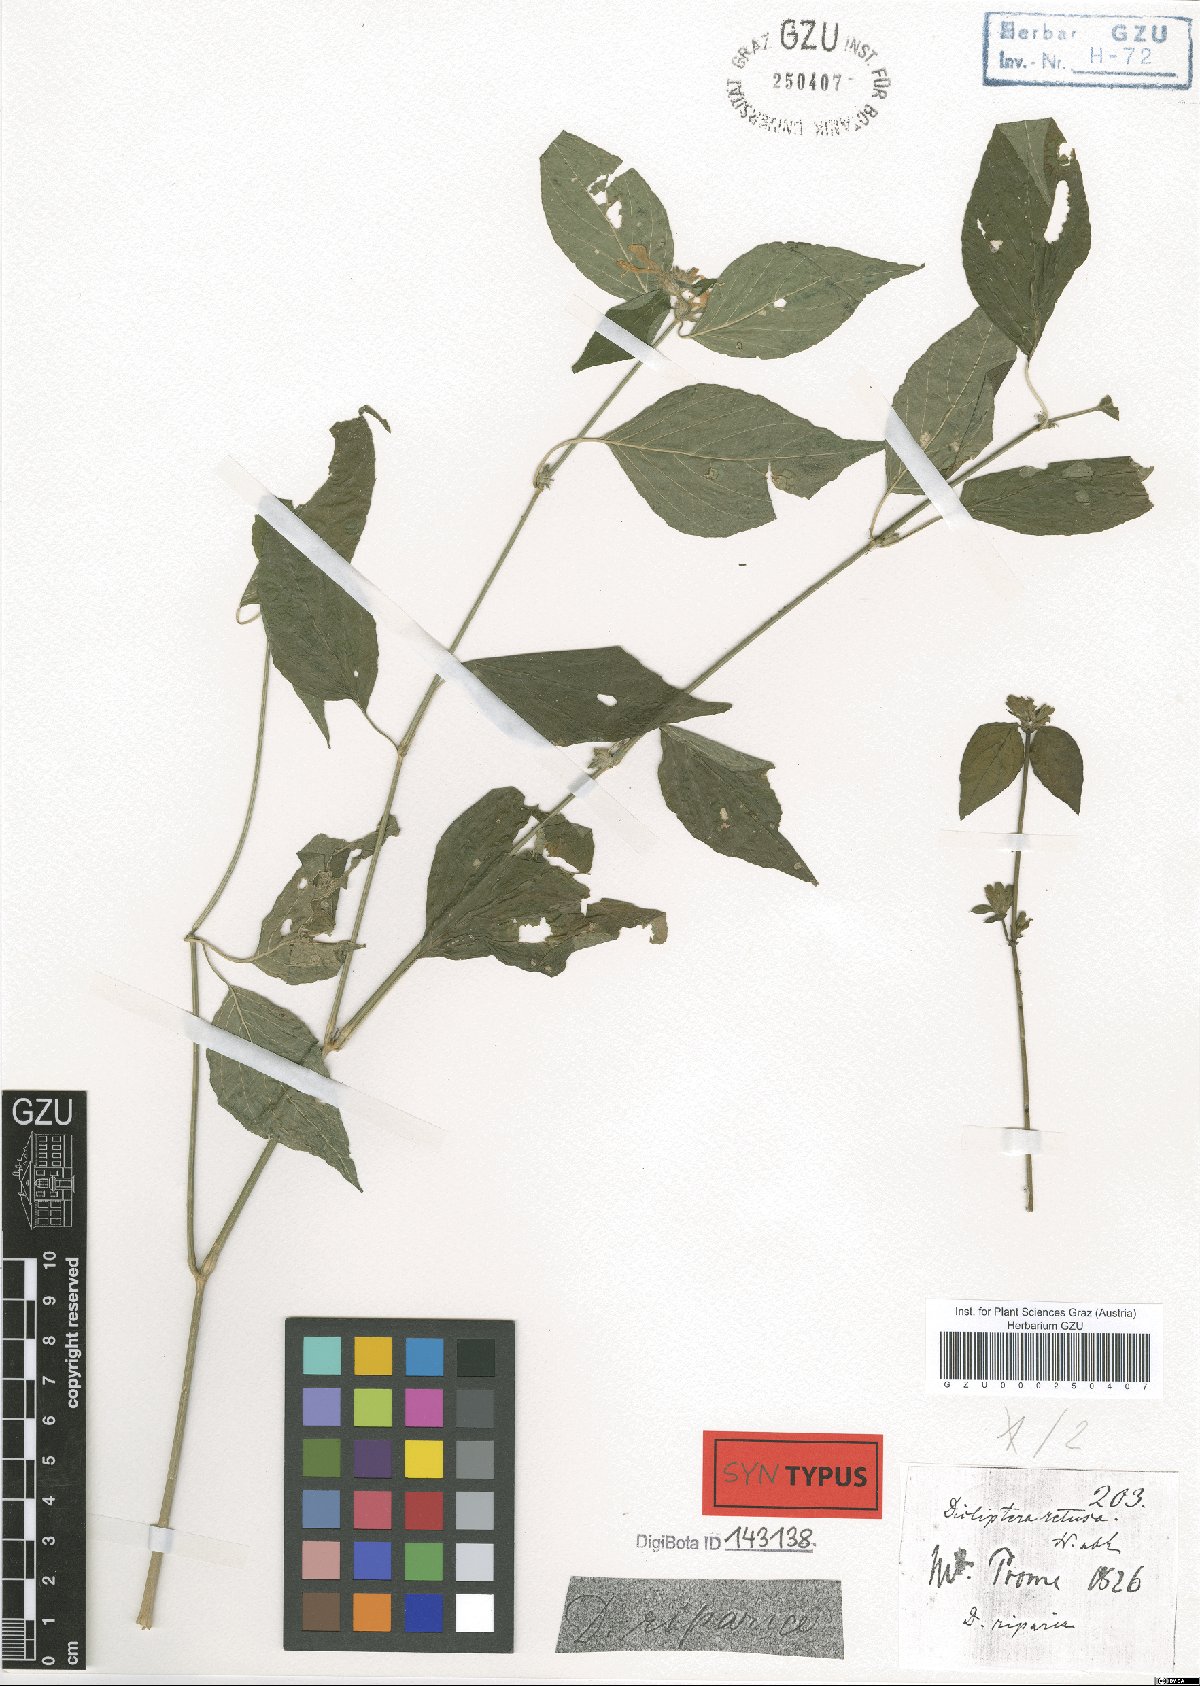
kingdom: Plantae
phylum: Tracheophyta
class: Magnoliopsida
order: Lamiales
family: Acanthaceae
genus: Dicliptera
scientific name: Dicliptera riparia
